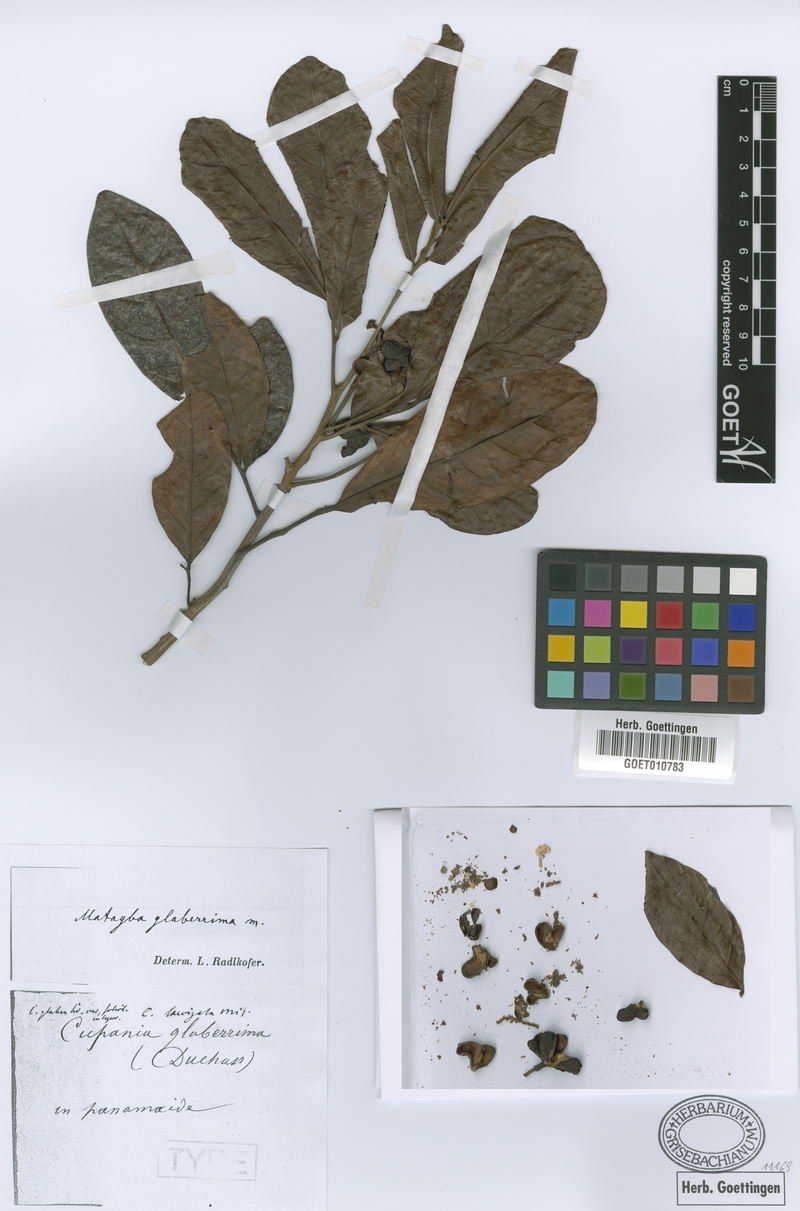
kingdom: Plantae
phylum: Tracheophyta
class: Magnoliopsida
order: Sapindales
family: Sapindaceae
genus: Matayba
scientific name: Matayba glaberrima
